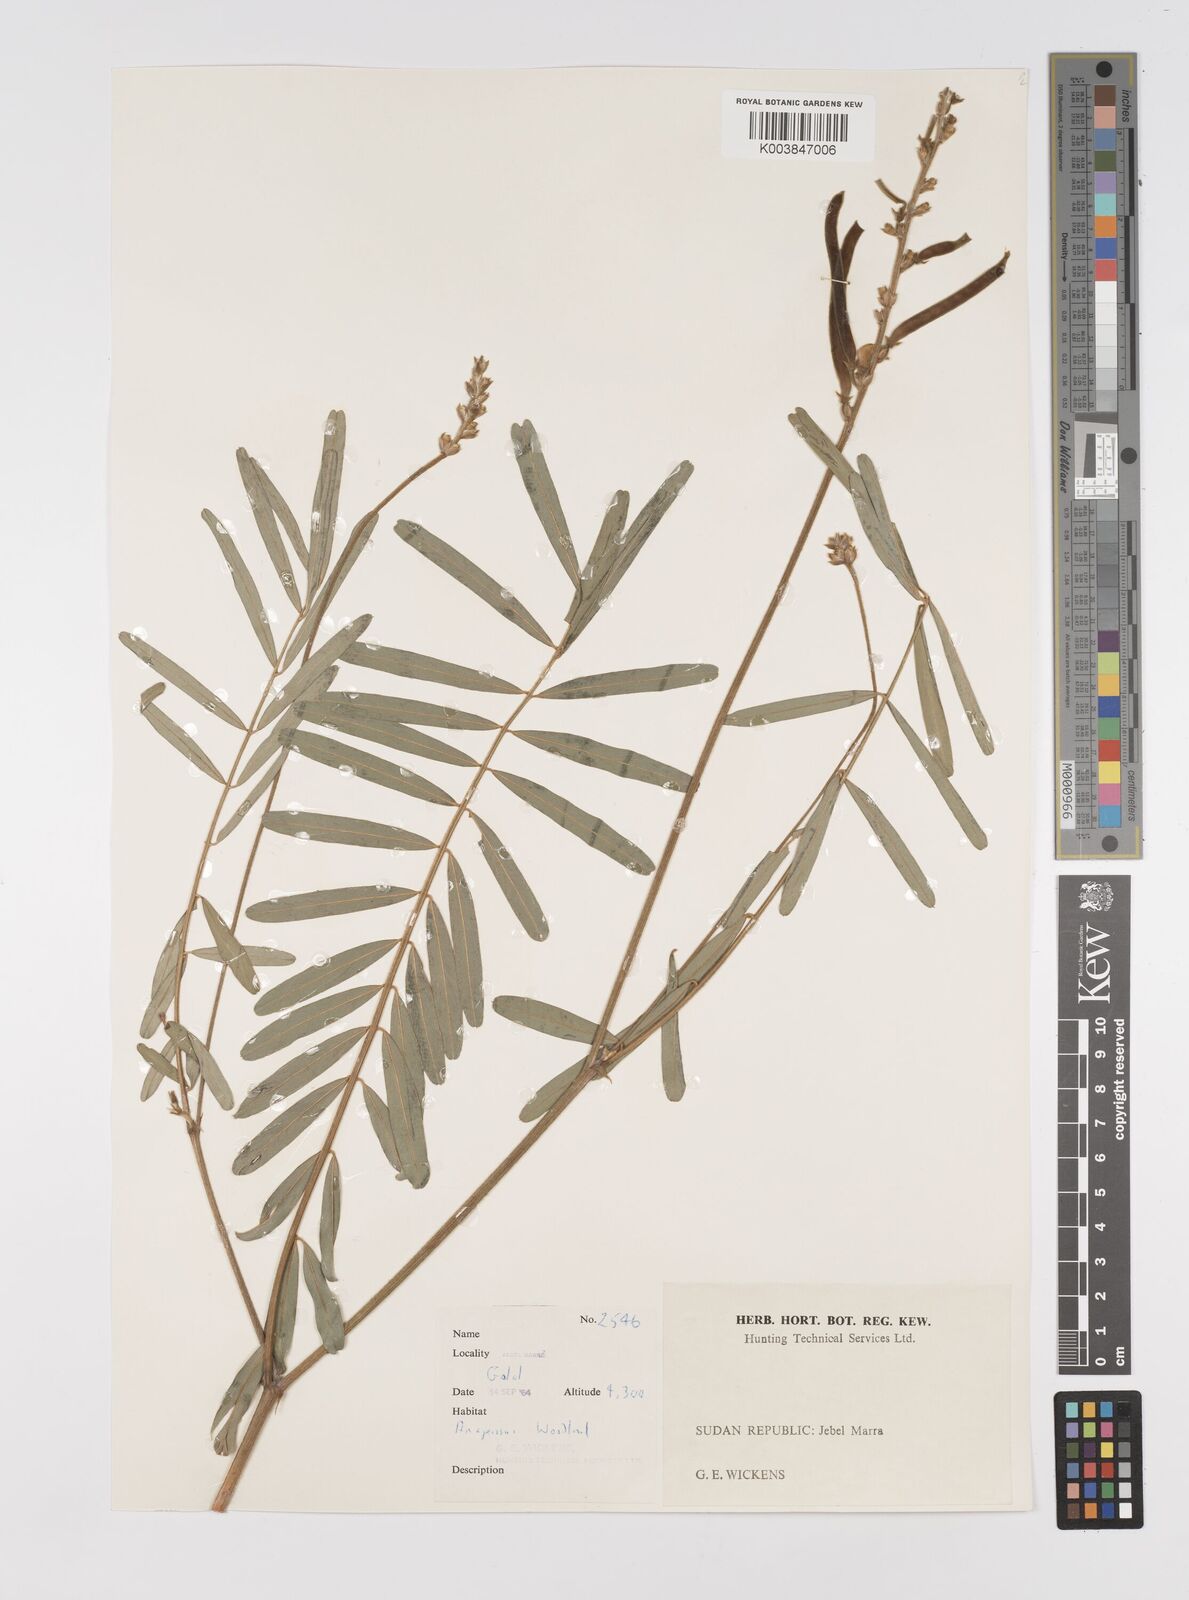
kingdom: Plantae
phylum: Tracheophyta
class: Magnoliopsida
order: Fabales
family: Fabaceae
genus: Tephrosia
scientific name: Tephrosia bracteolata
